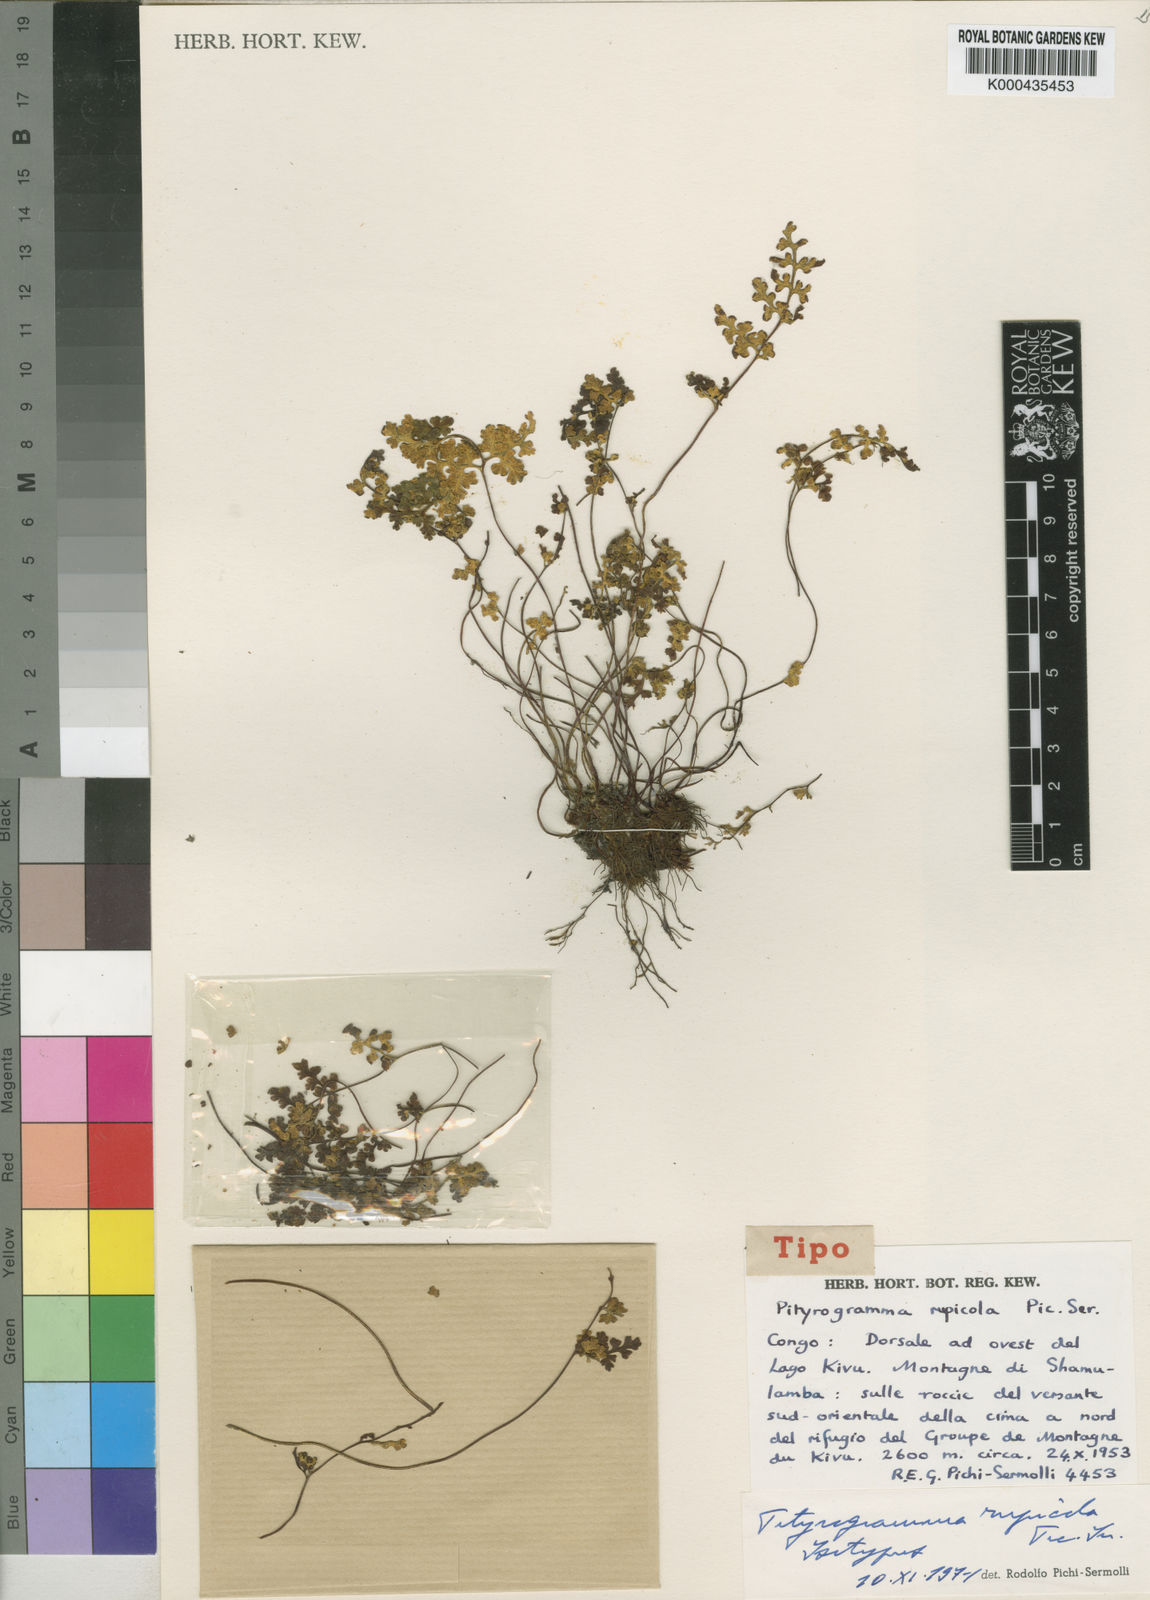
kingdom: Plantae
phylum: Tracheophyta
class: Polypodiopsida
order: Polypodiales
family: Pteridaceae
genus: Pityrogramma
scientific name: Pityrogramma rupicola
